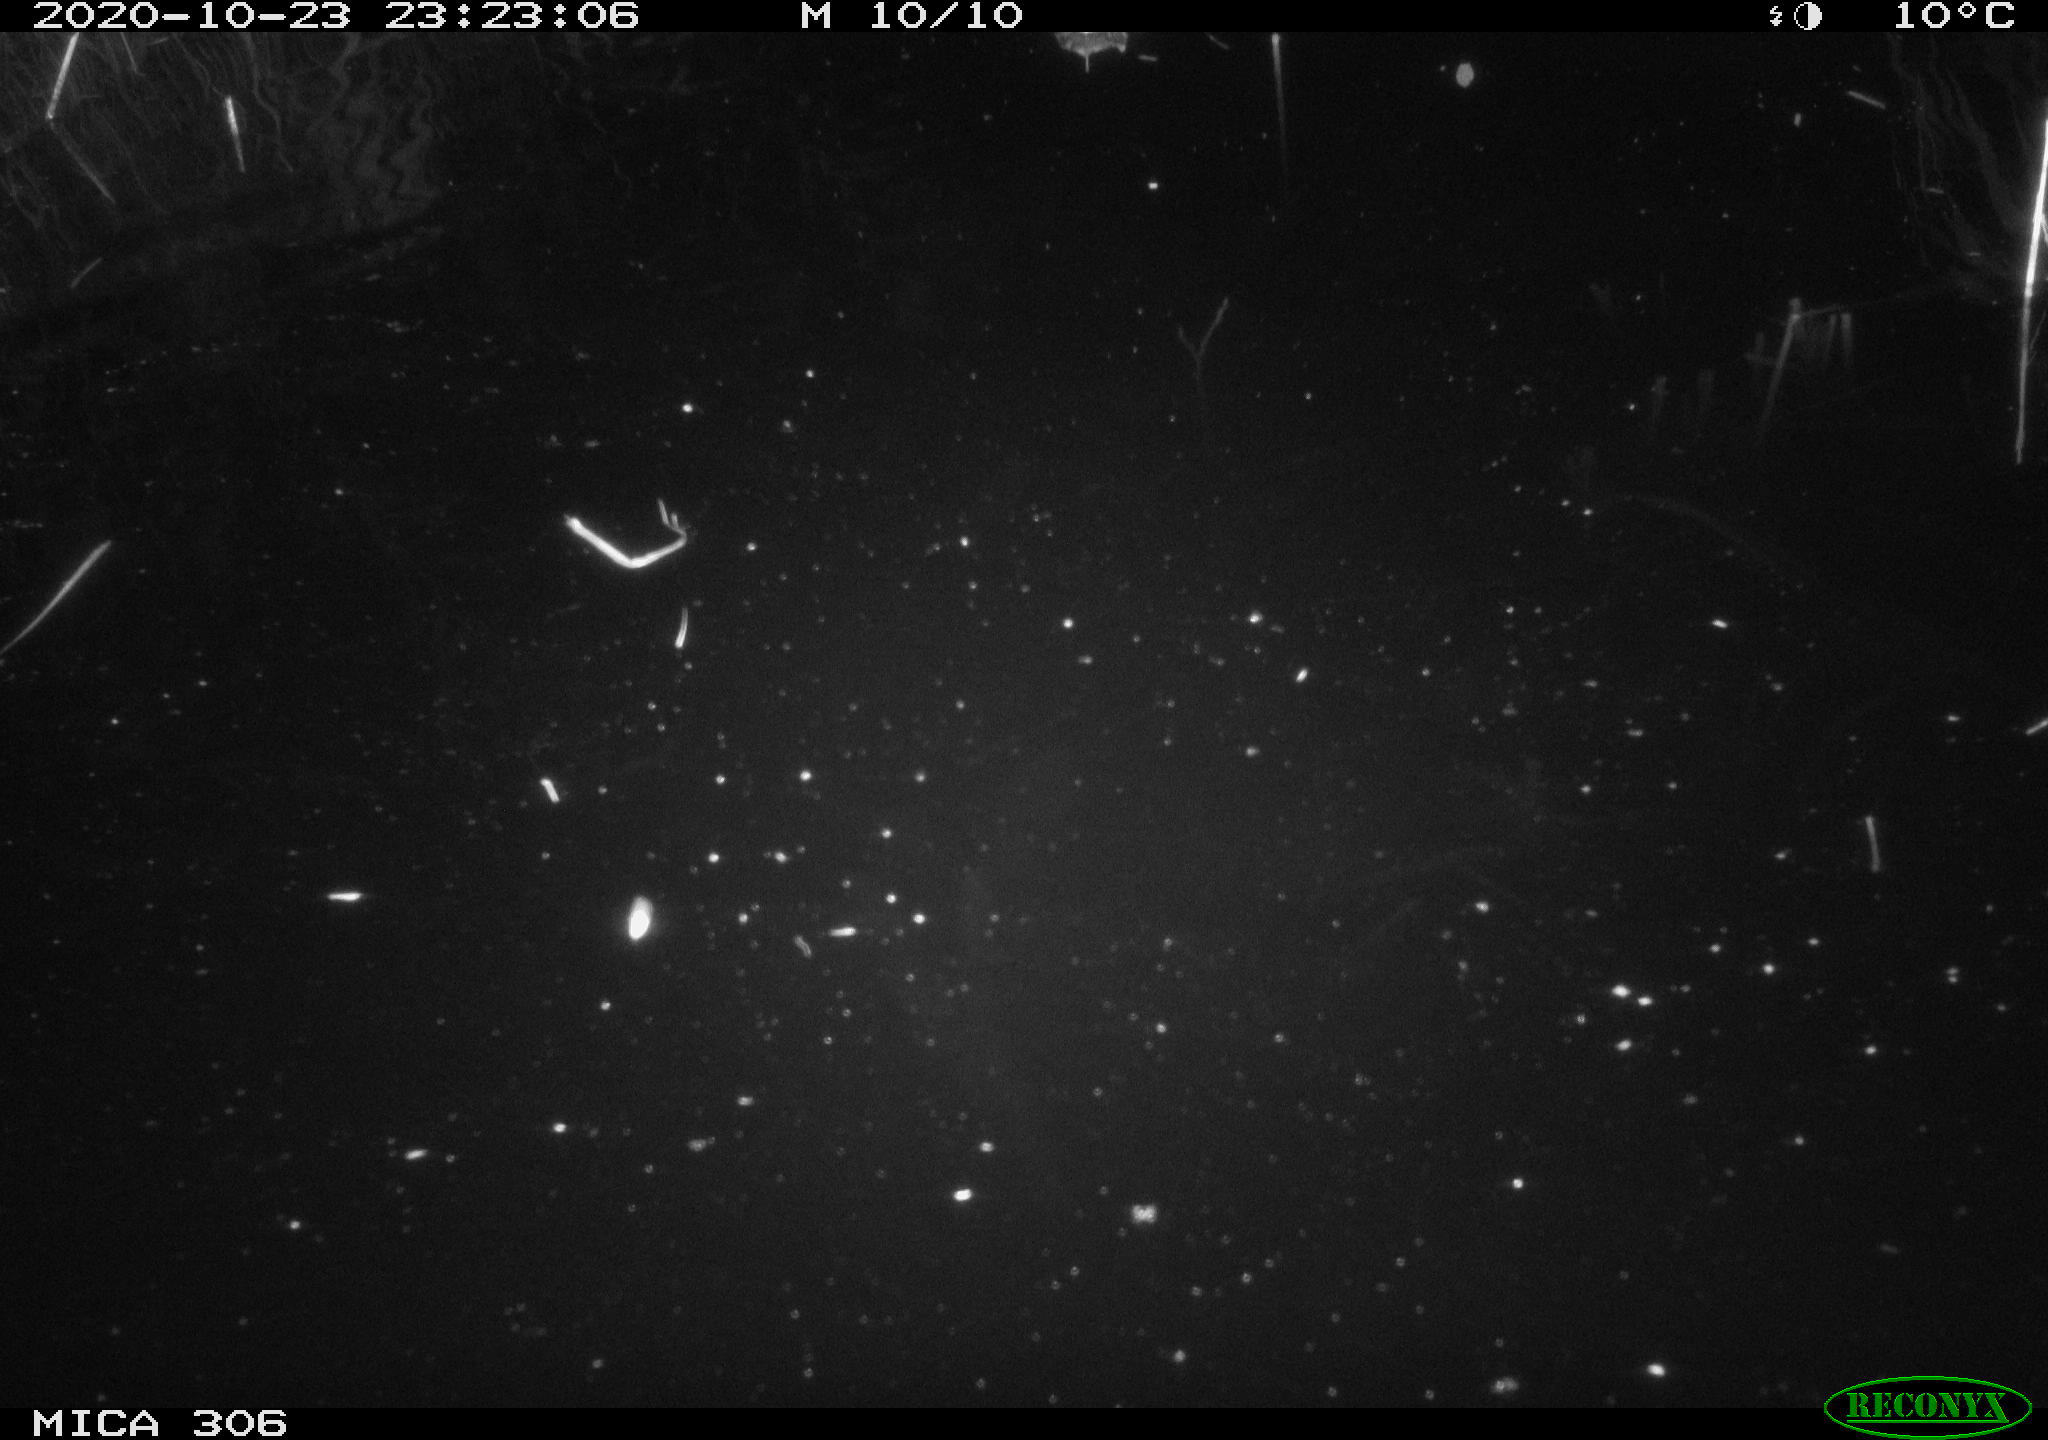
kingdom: Animalia
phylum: Chordata
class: Mammalia
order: Rodentia
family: Muridae
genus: Rattus
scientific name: Rattus norvegicus
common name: Brown rat
